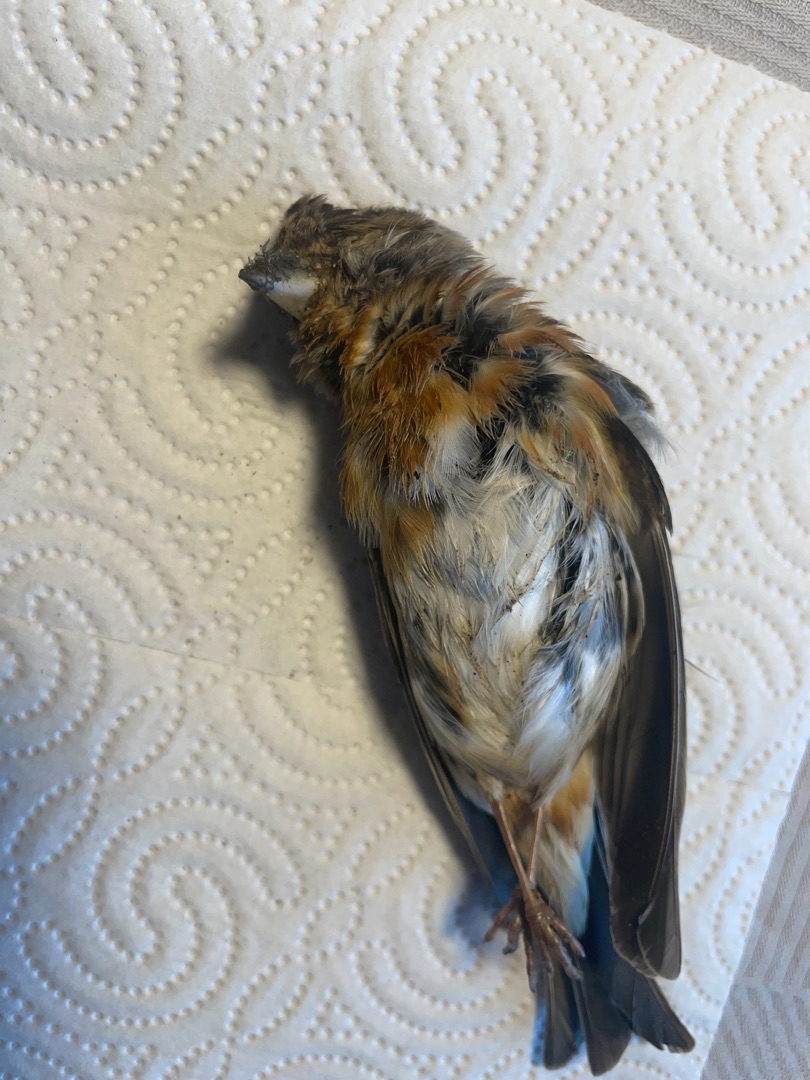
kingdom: Animalia
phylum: Chordata
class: Aves
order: Passeriformes
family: Fringillidae
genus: Fringilla
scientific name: Fringilla montifringilla
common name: Kvækerfinke
